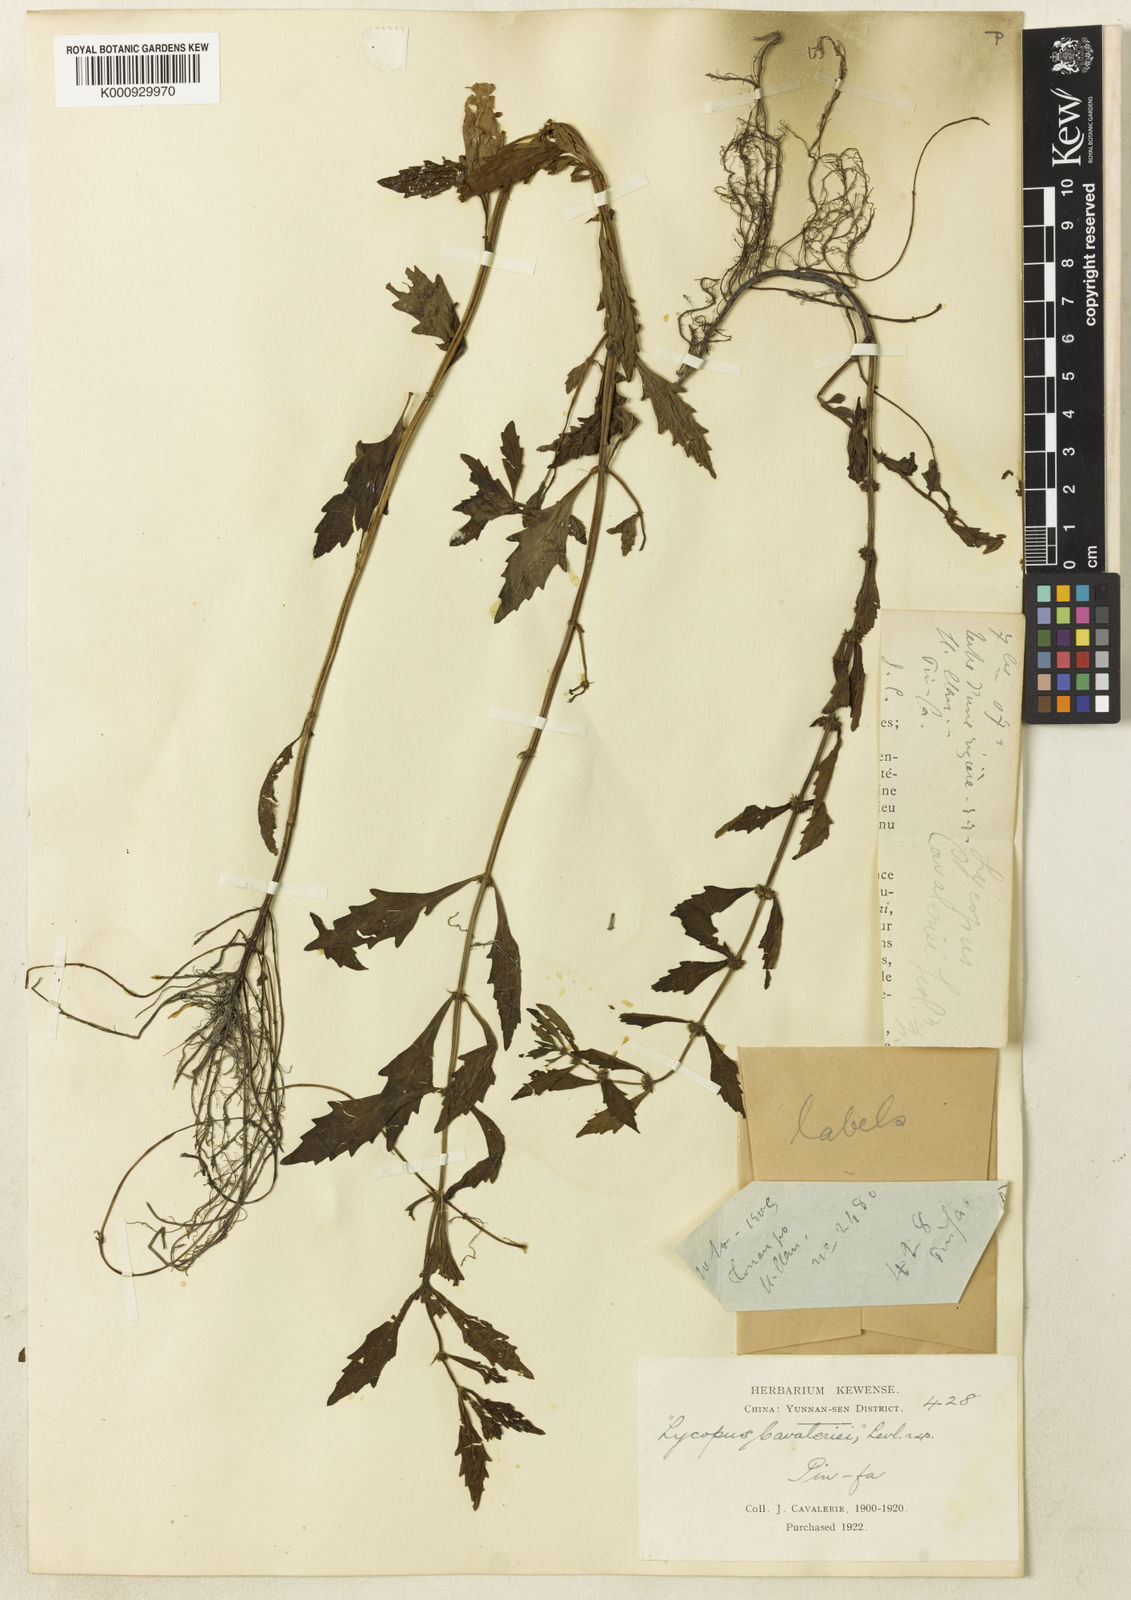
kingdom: Plantae
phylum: Tracheophyta
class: Magnoliopsida
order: Lamiales
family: Lamiaceae
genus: Lycopus
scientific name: Lycopus
